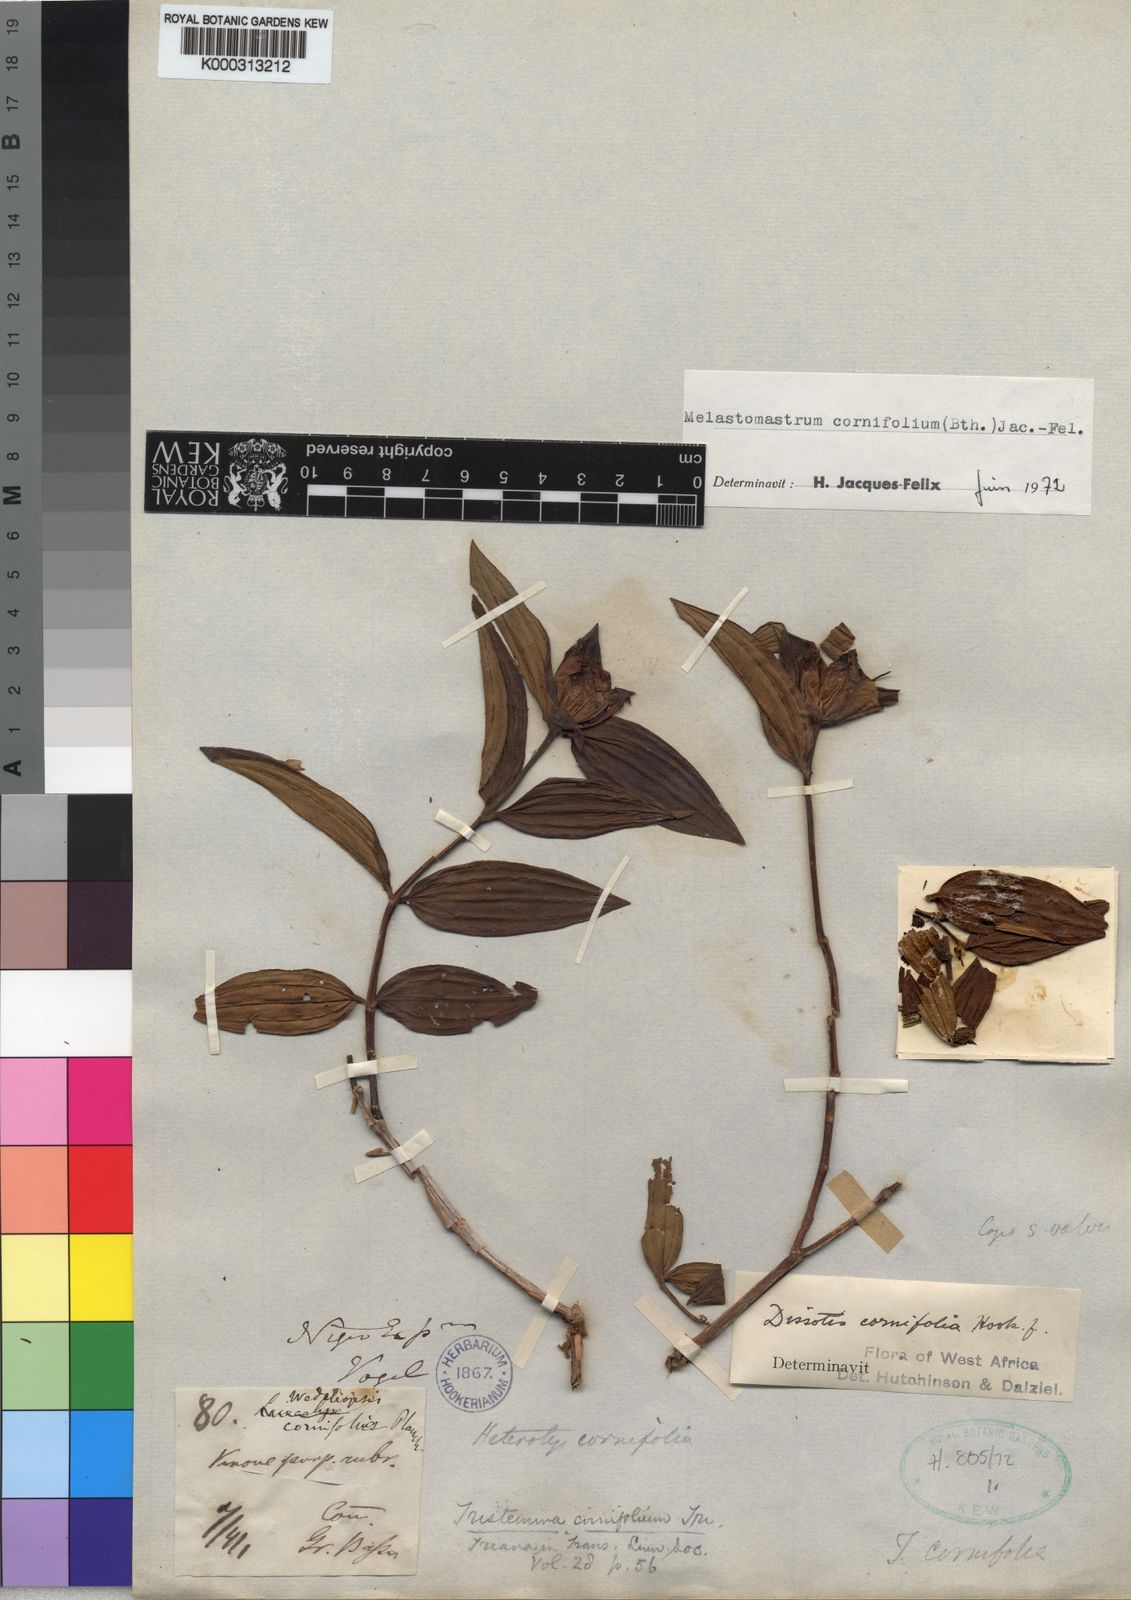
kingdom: Plantae
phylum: Tracheophyta
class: Magnoliopsida
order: Myrtales
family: Melastomataceae
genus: Melastomastrum
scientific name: Melastomastrum
